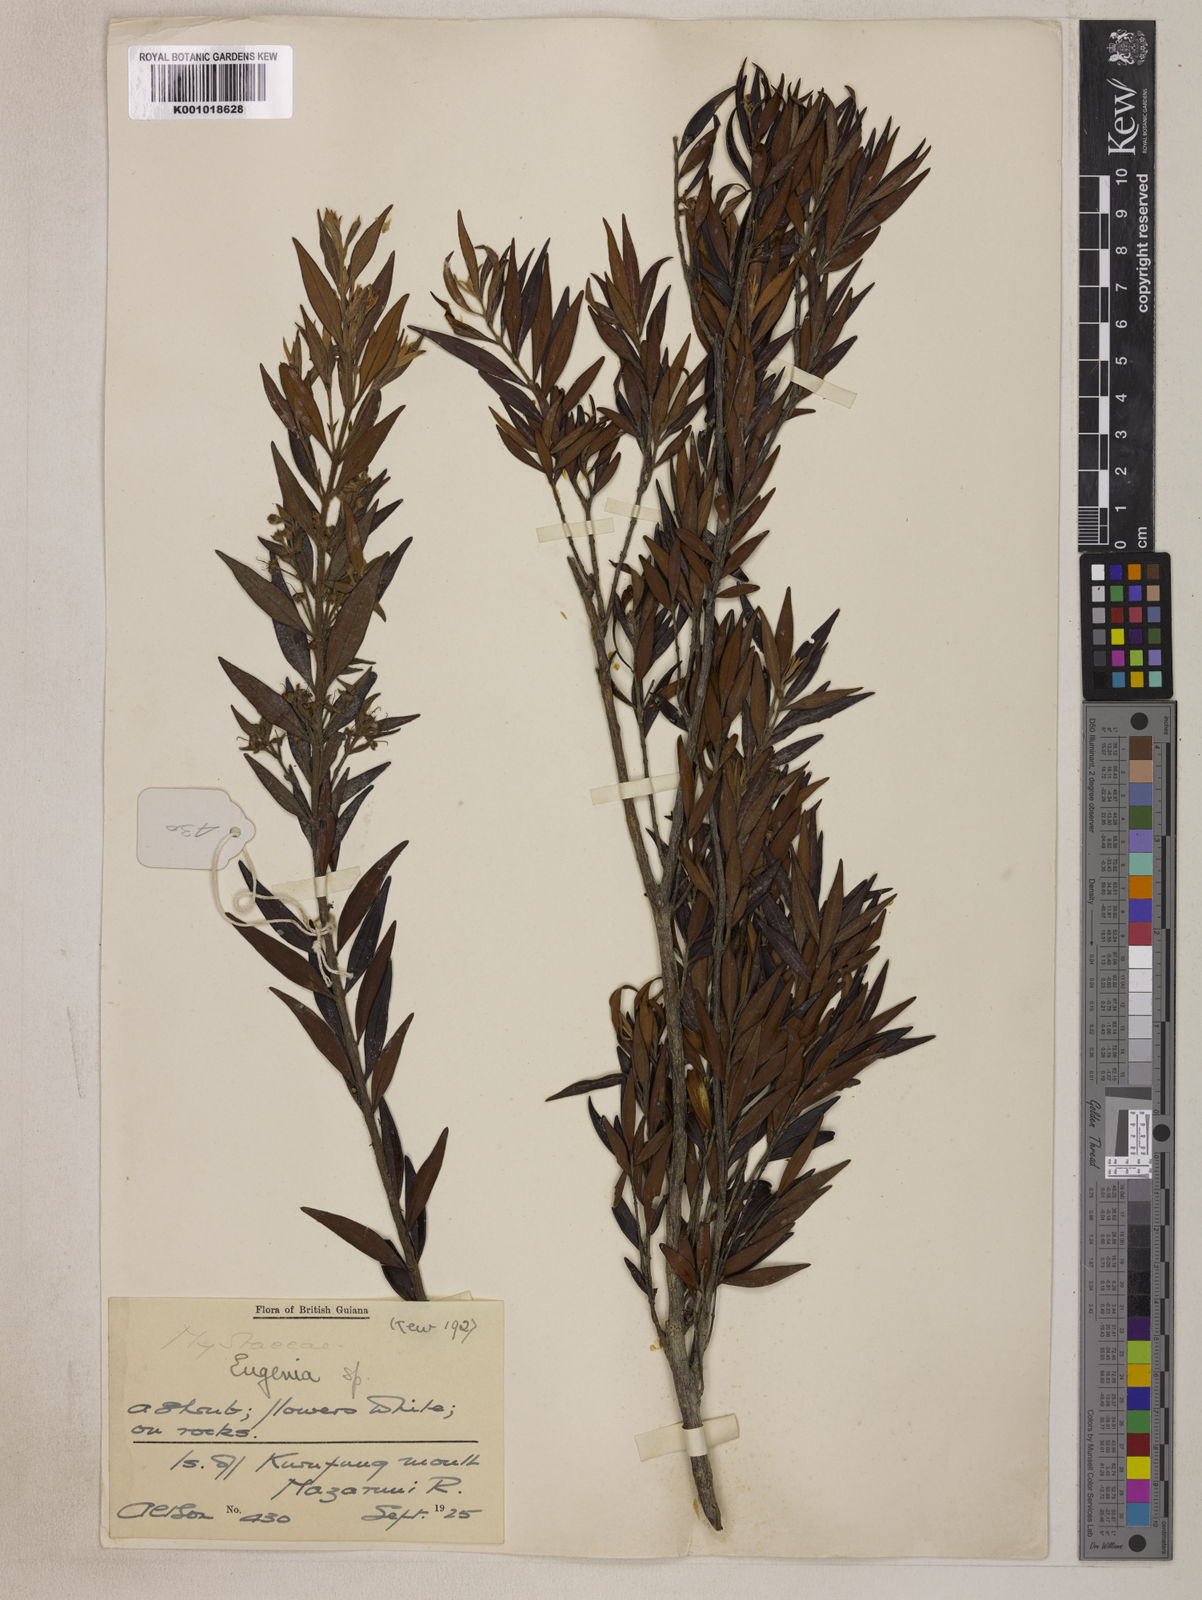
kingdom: Plantae
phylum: Tracheophyta
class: Magnoliopsida
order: Myrtales
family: Myrtaceae
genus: Eugenia
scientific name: Eugenia biflora
